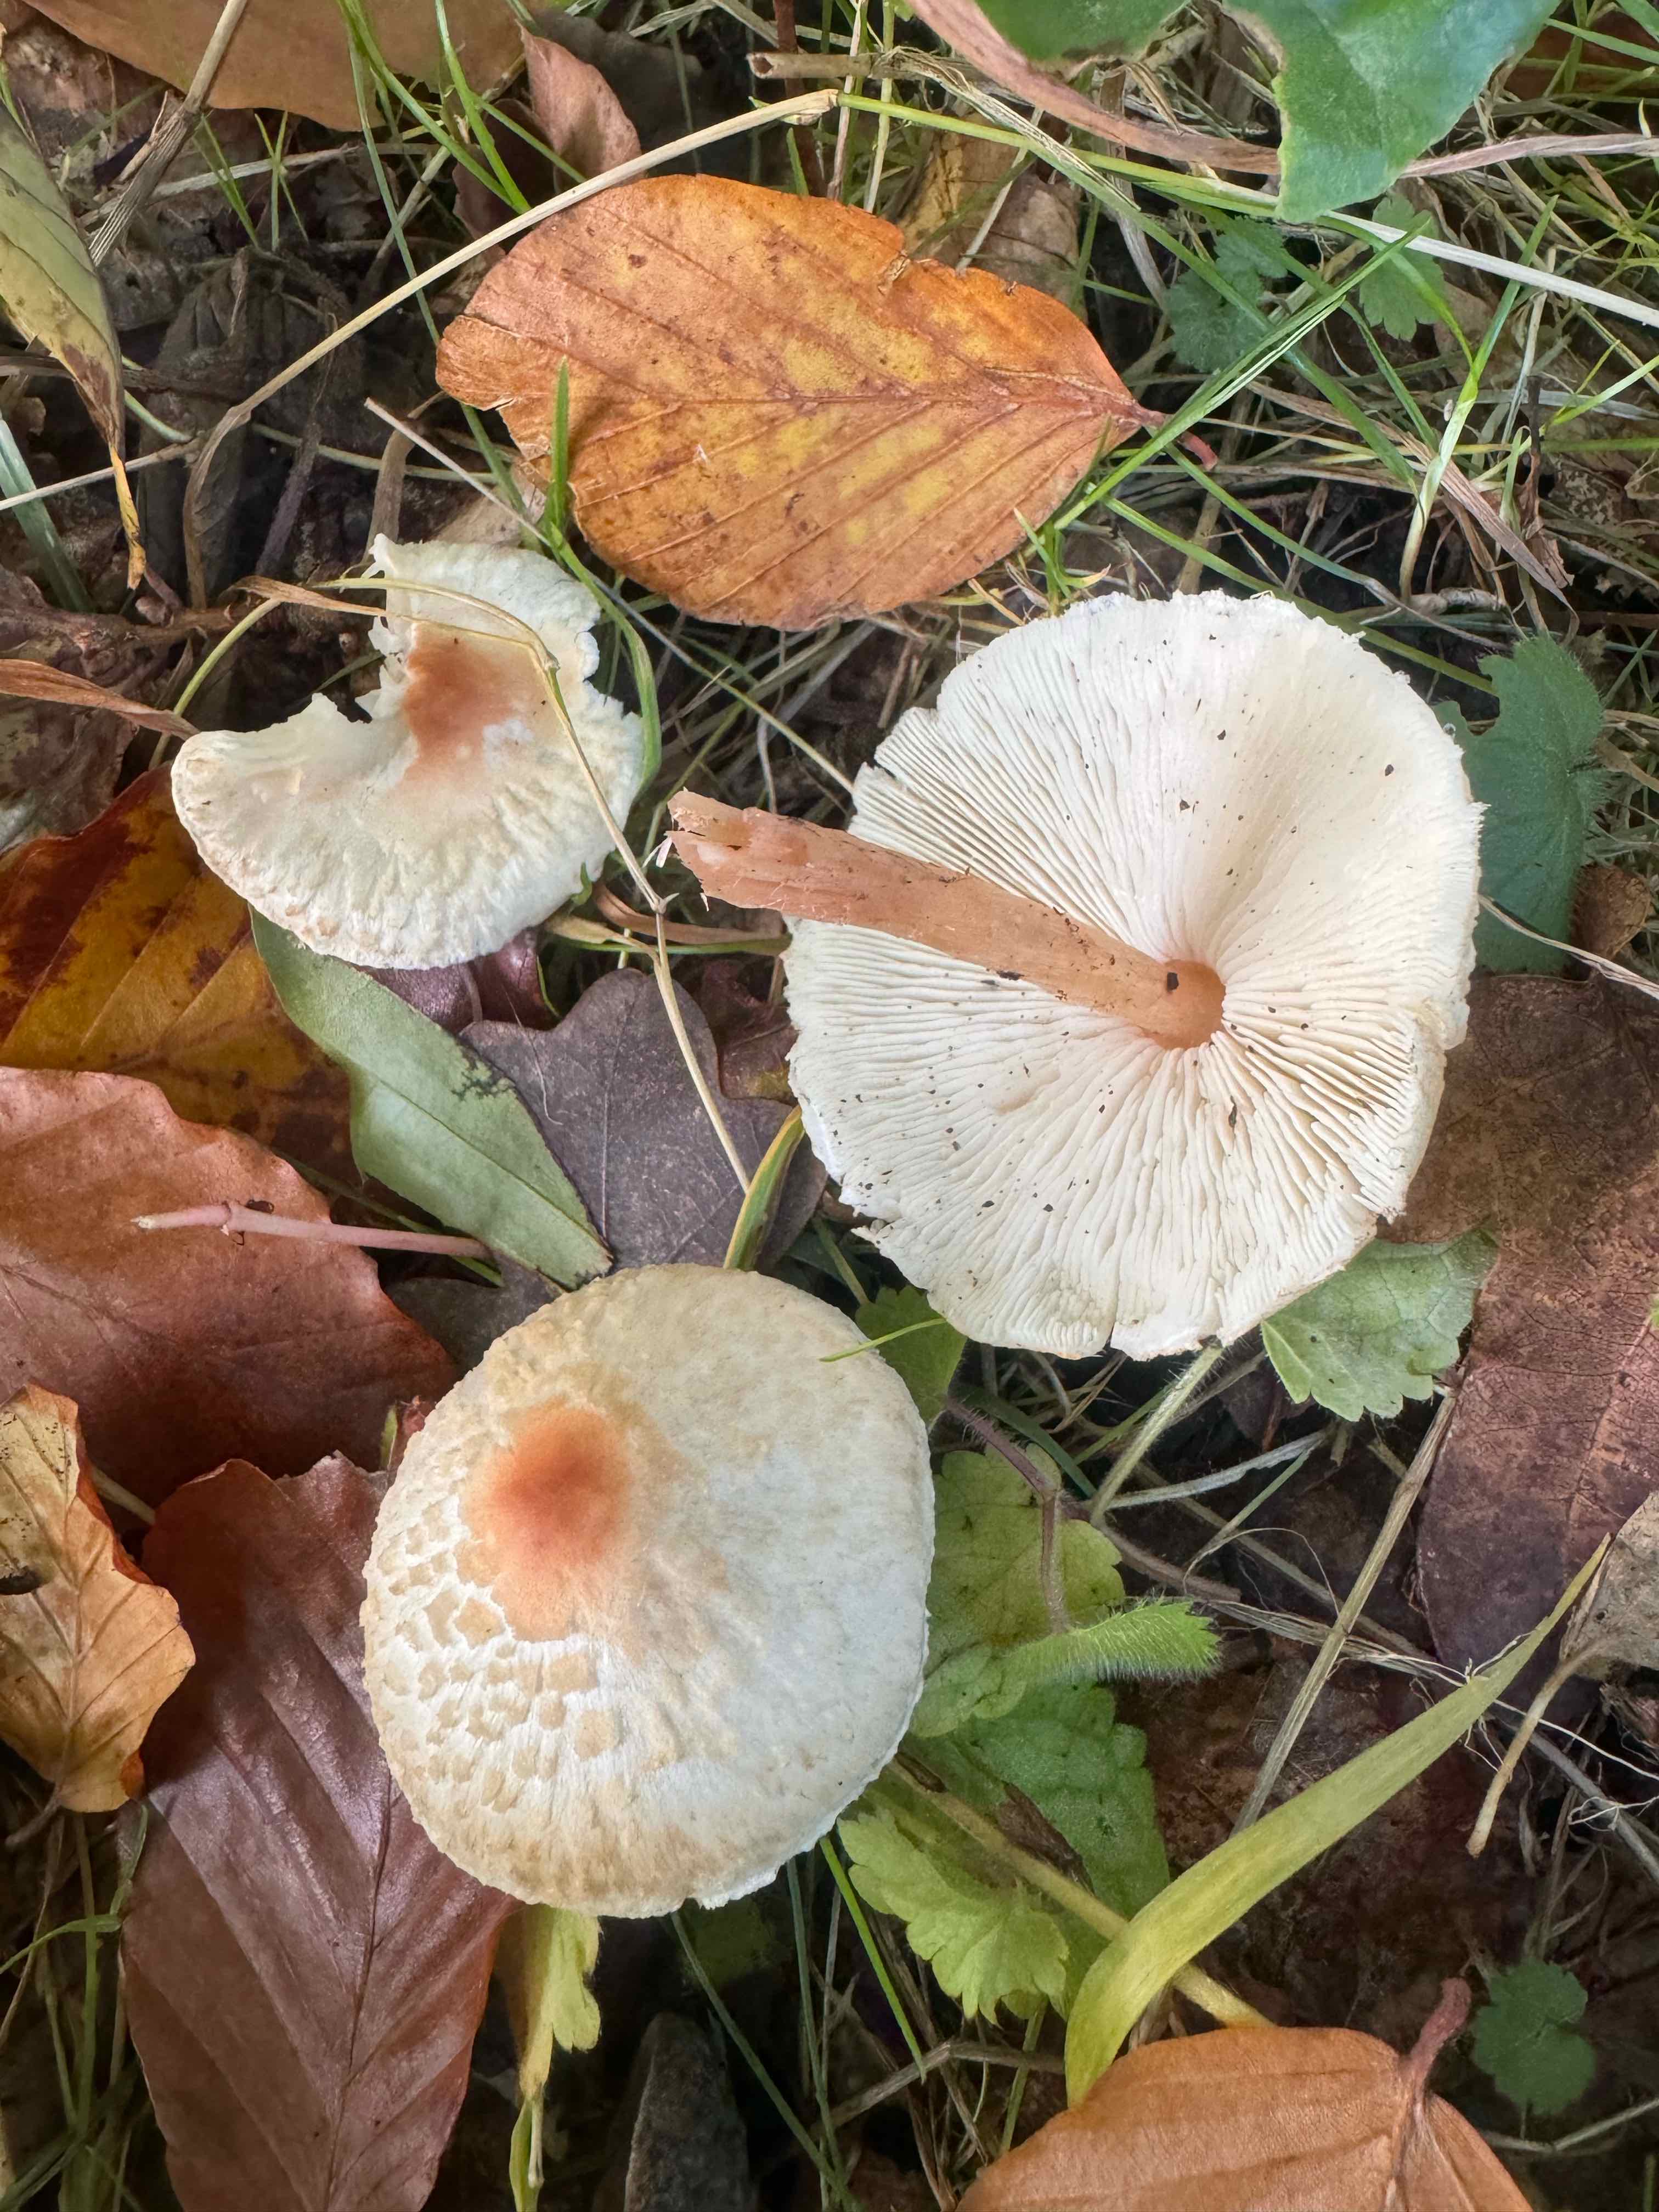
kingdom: Fungi
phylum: Basidiomycota
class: Agaricomycetes
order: Agaricales
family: Agaricaceae
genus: Lepiota
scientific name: Lepiota cristata
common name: stinkende parasolhat
